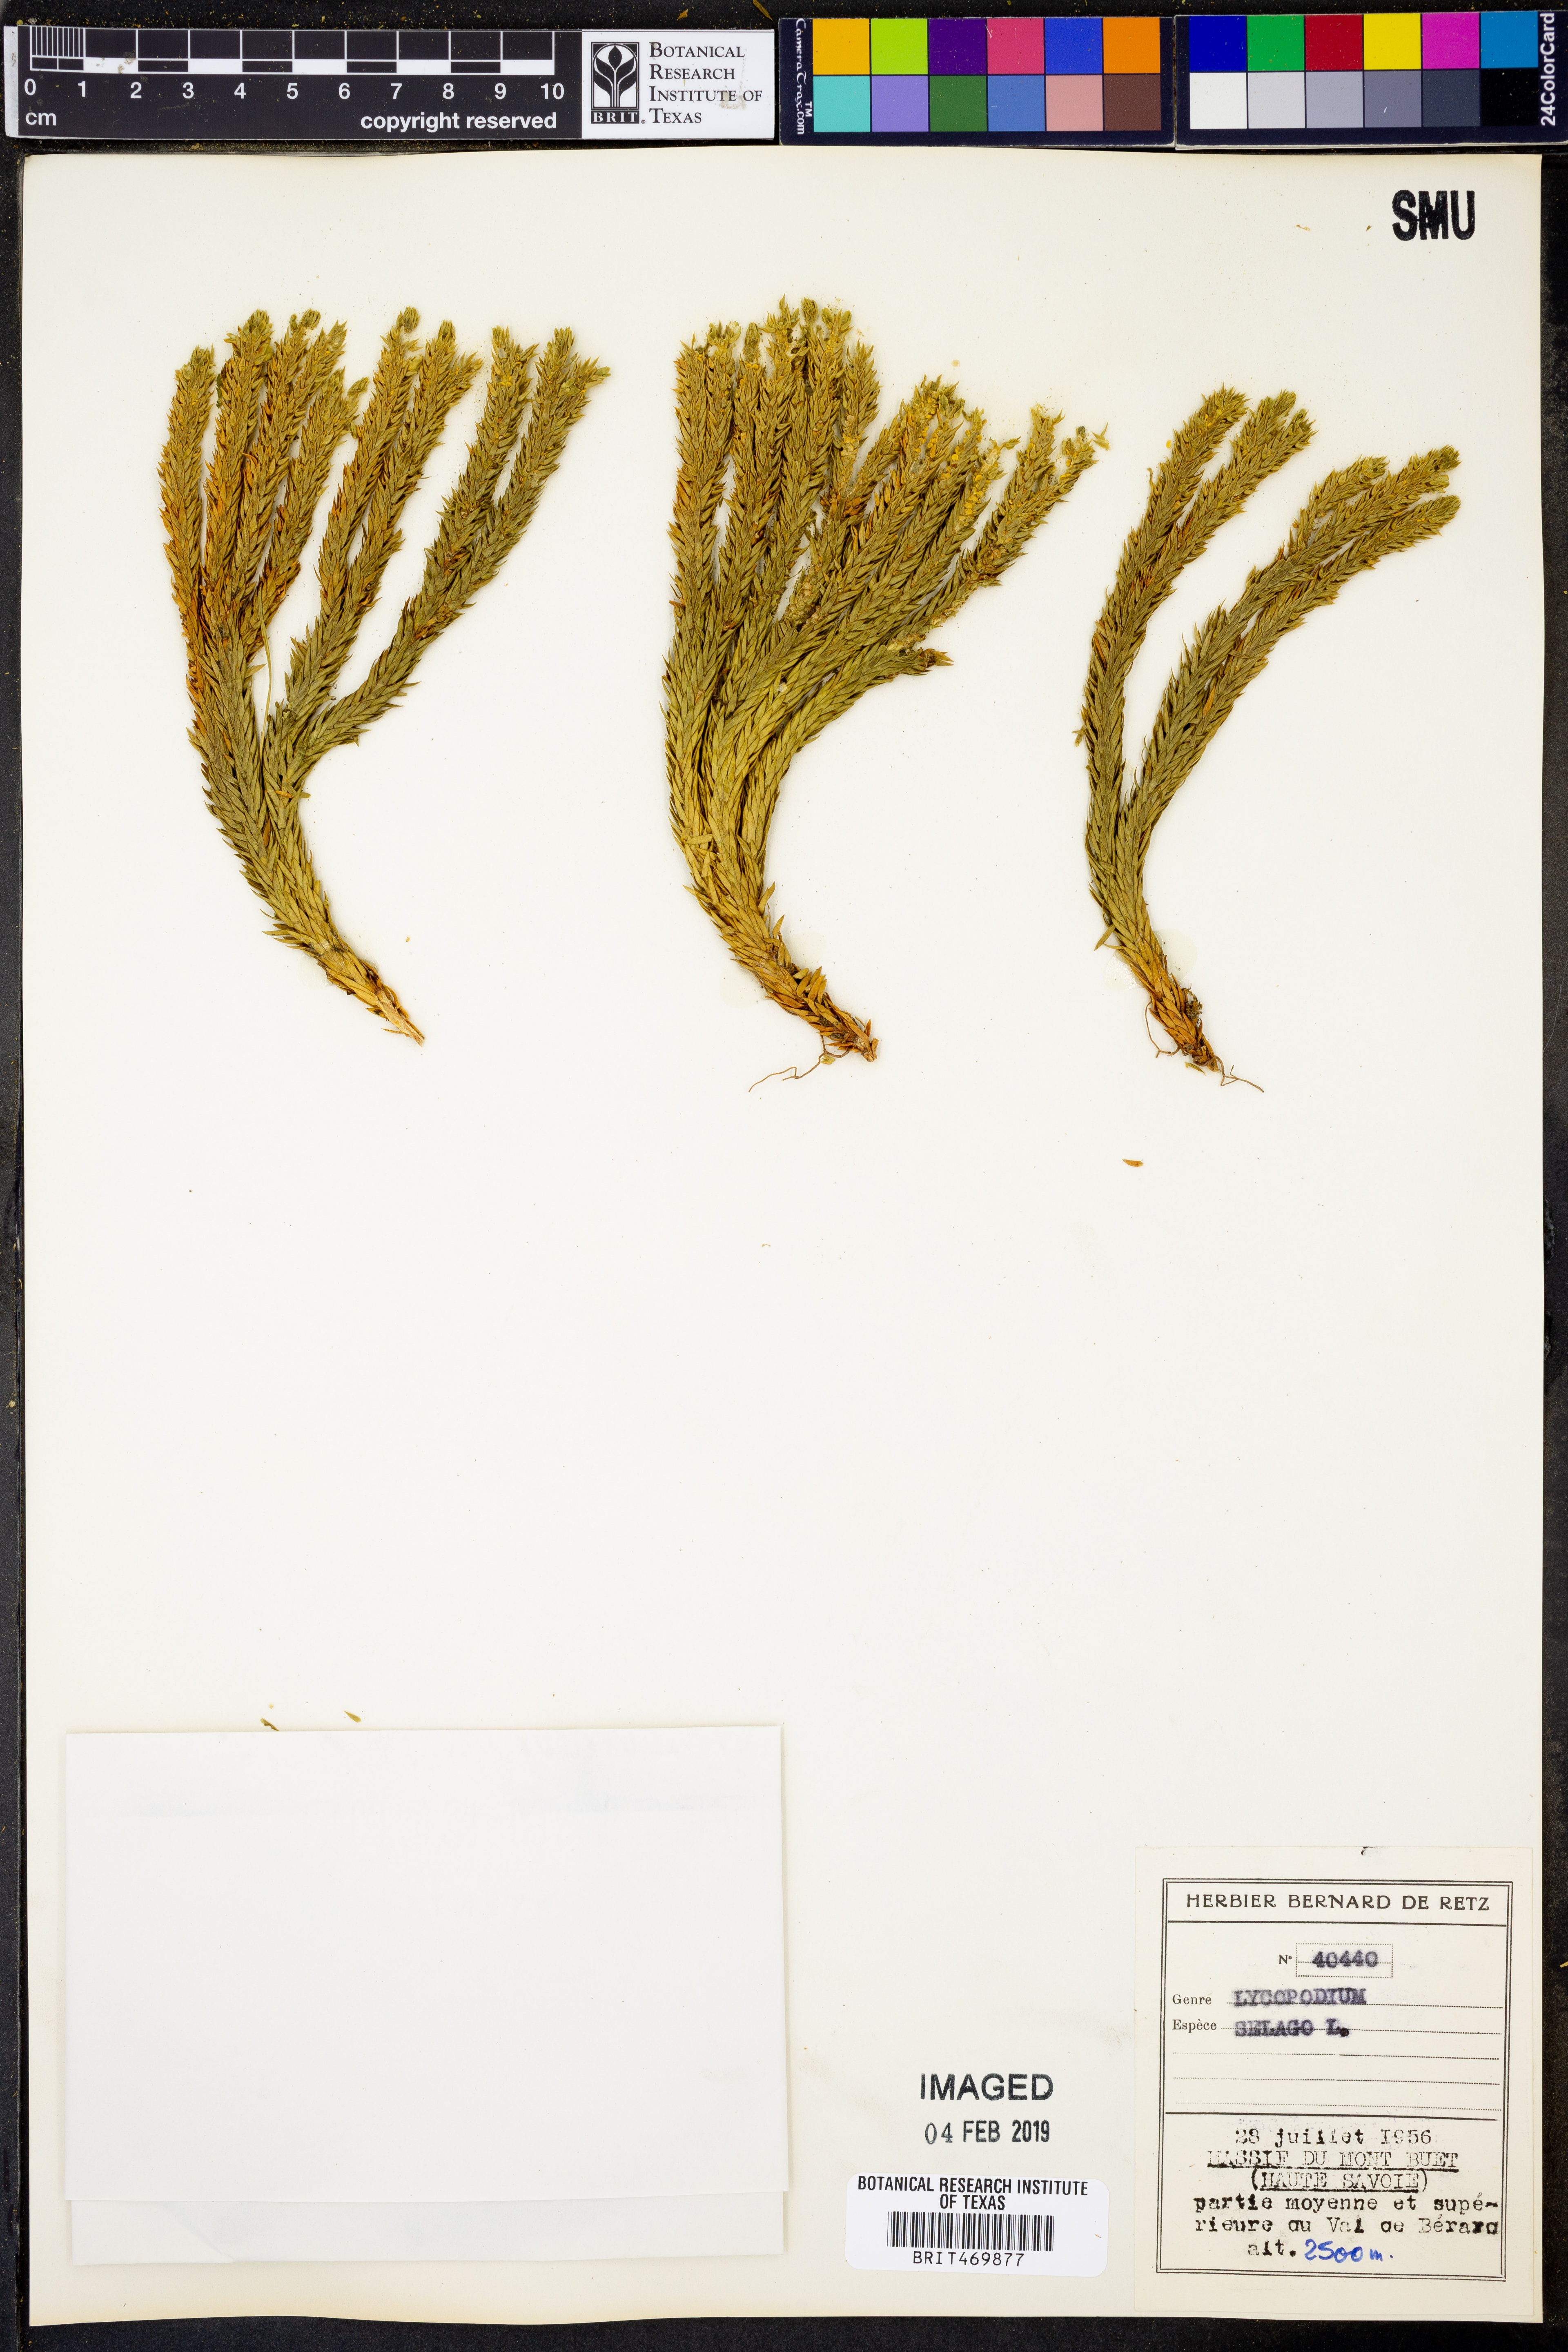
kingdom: Plantae
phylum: Tracheophyta
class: Lycopodiopsida
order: Lycopodiales
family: Lycopodiaceae
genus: Huperzia
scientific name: Huperzia selago
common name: Northern firmoss
